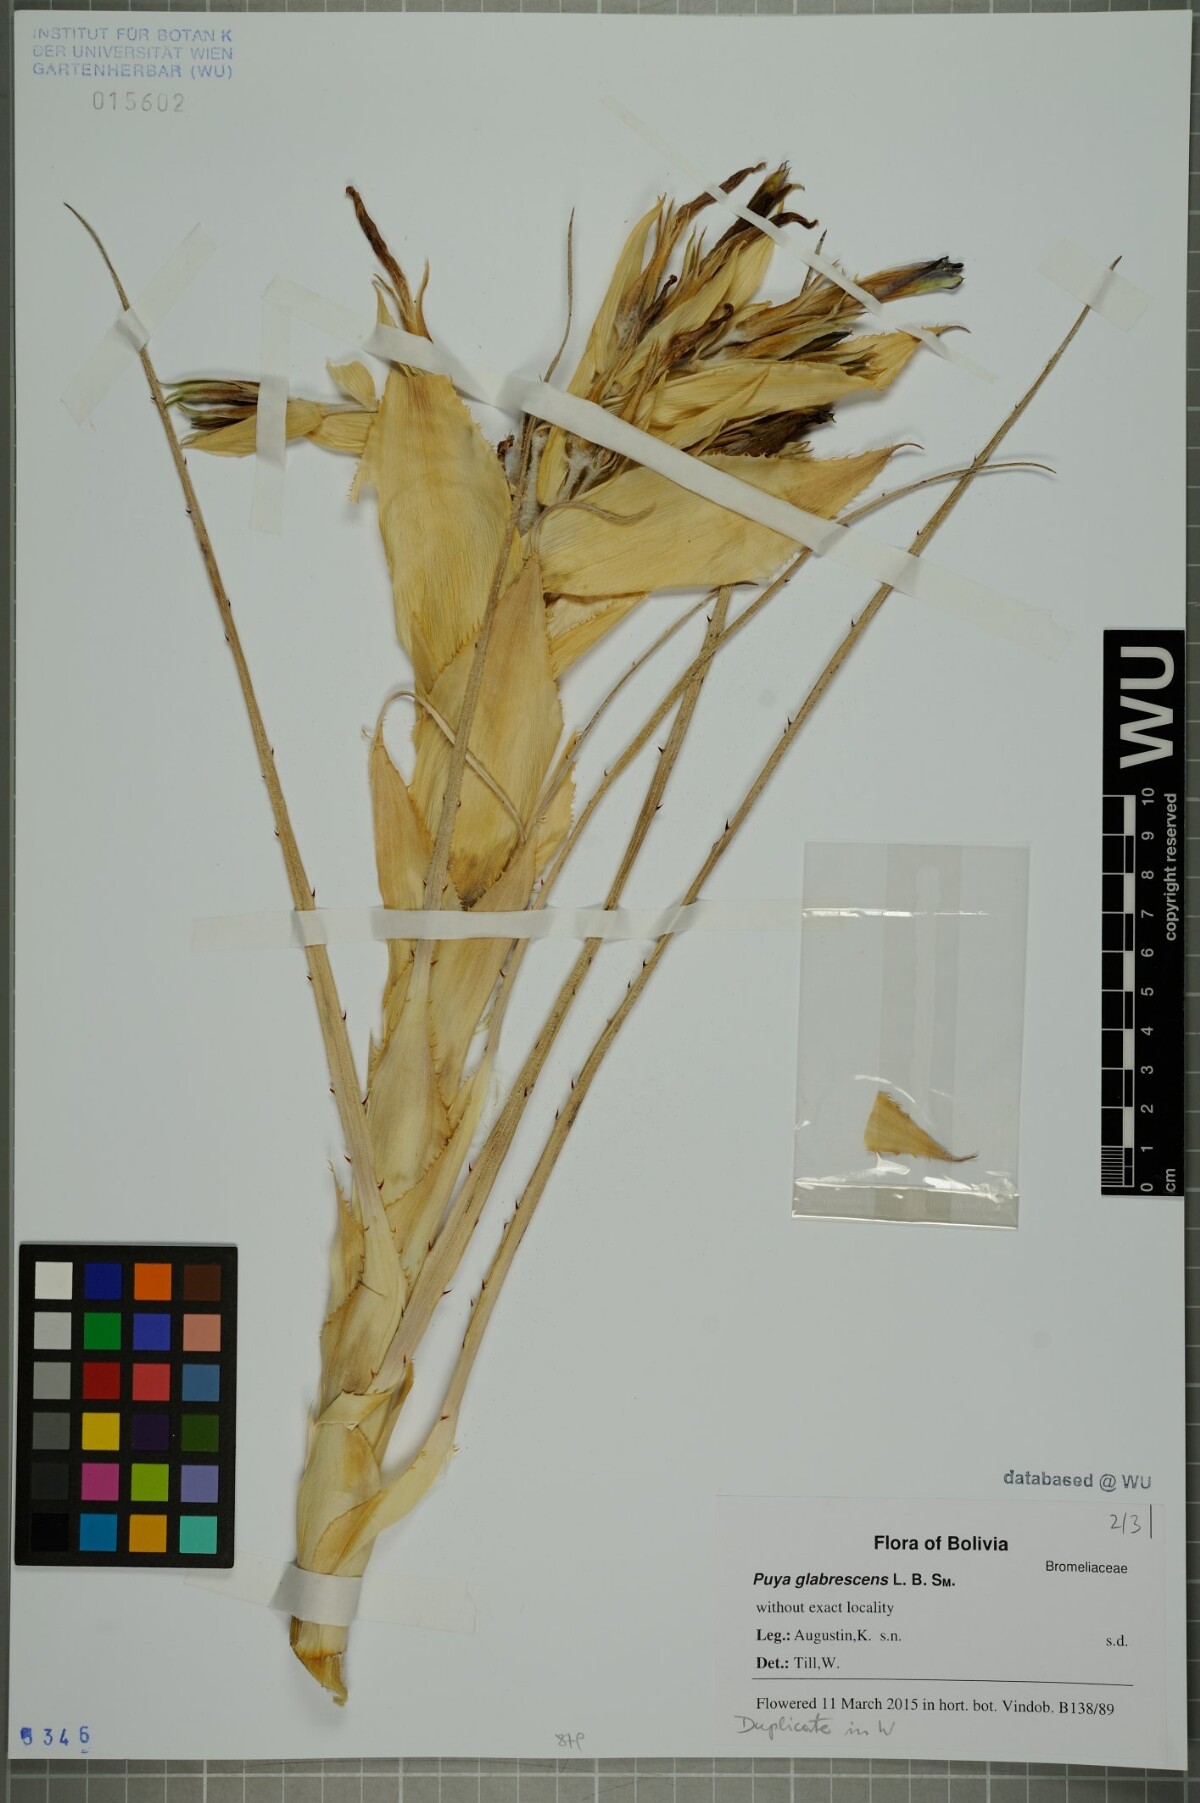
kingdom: Plantae
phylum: Tracheophyta
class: Liliopsida
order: Poales
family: Bromeliaceae
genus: Puya
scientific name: Puya glabrescens
